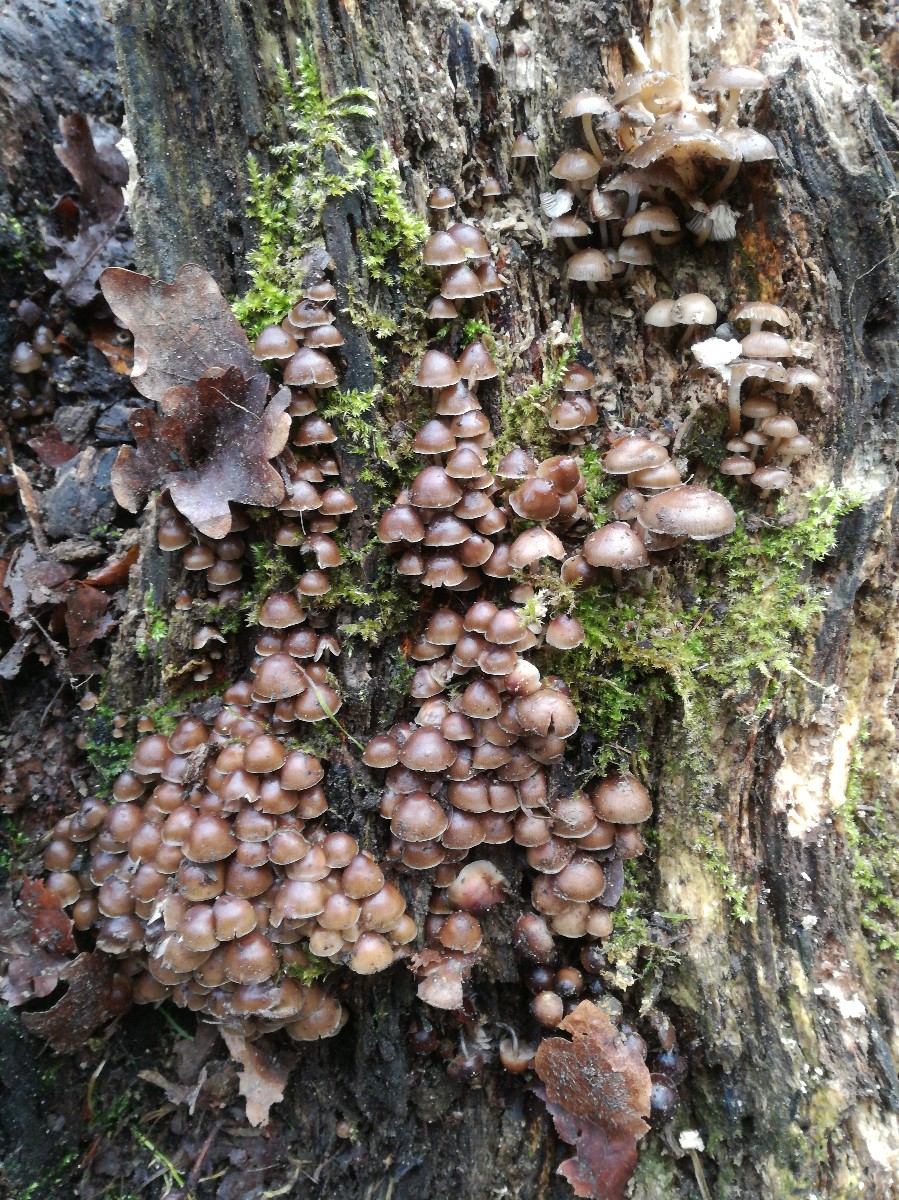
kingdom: Fungi
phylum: Basidiomycota
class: Agaricomycetes
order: Agaricales
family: Mycenaceae
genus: Mycena
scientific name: Mycena tintinnabulum
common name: vinter-huesvamp
